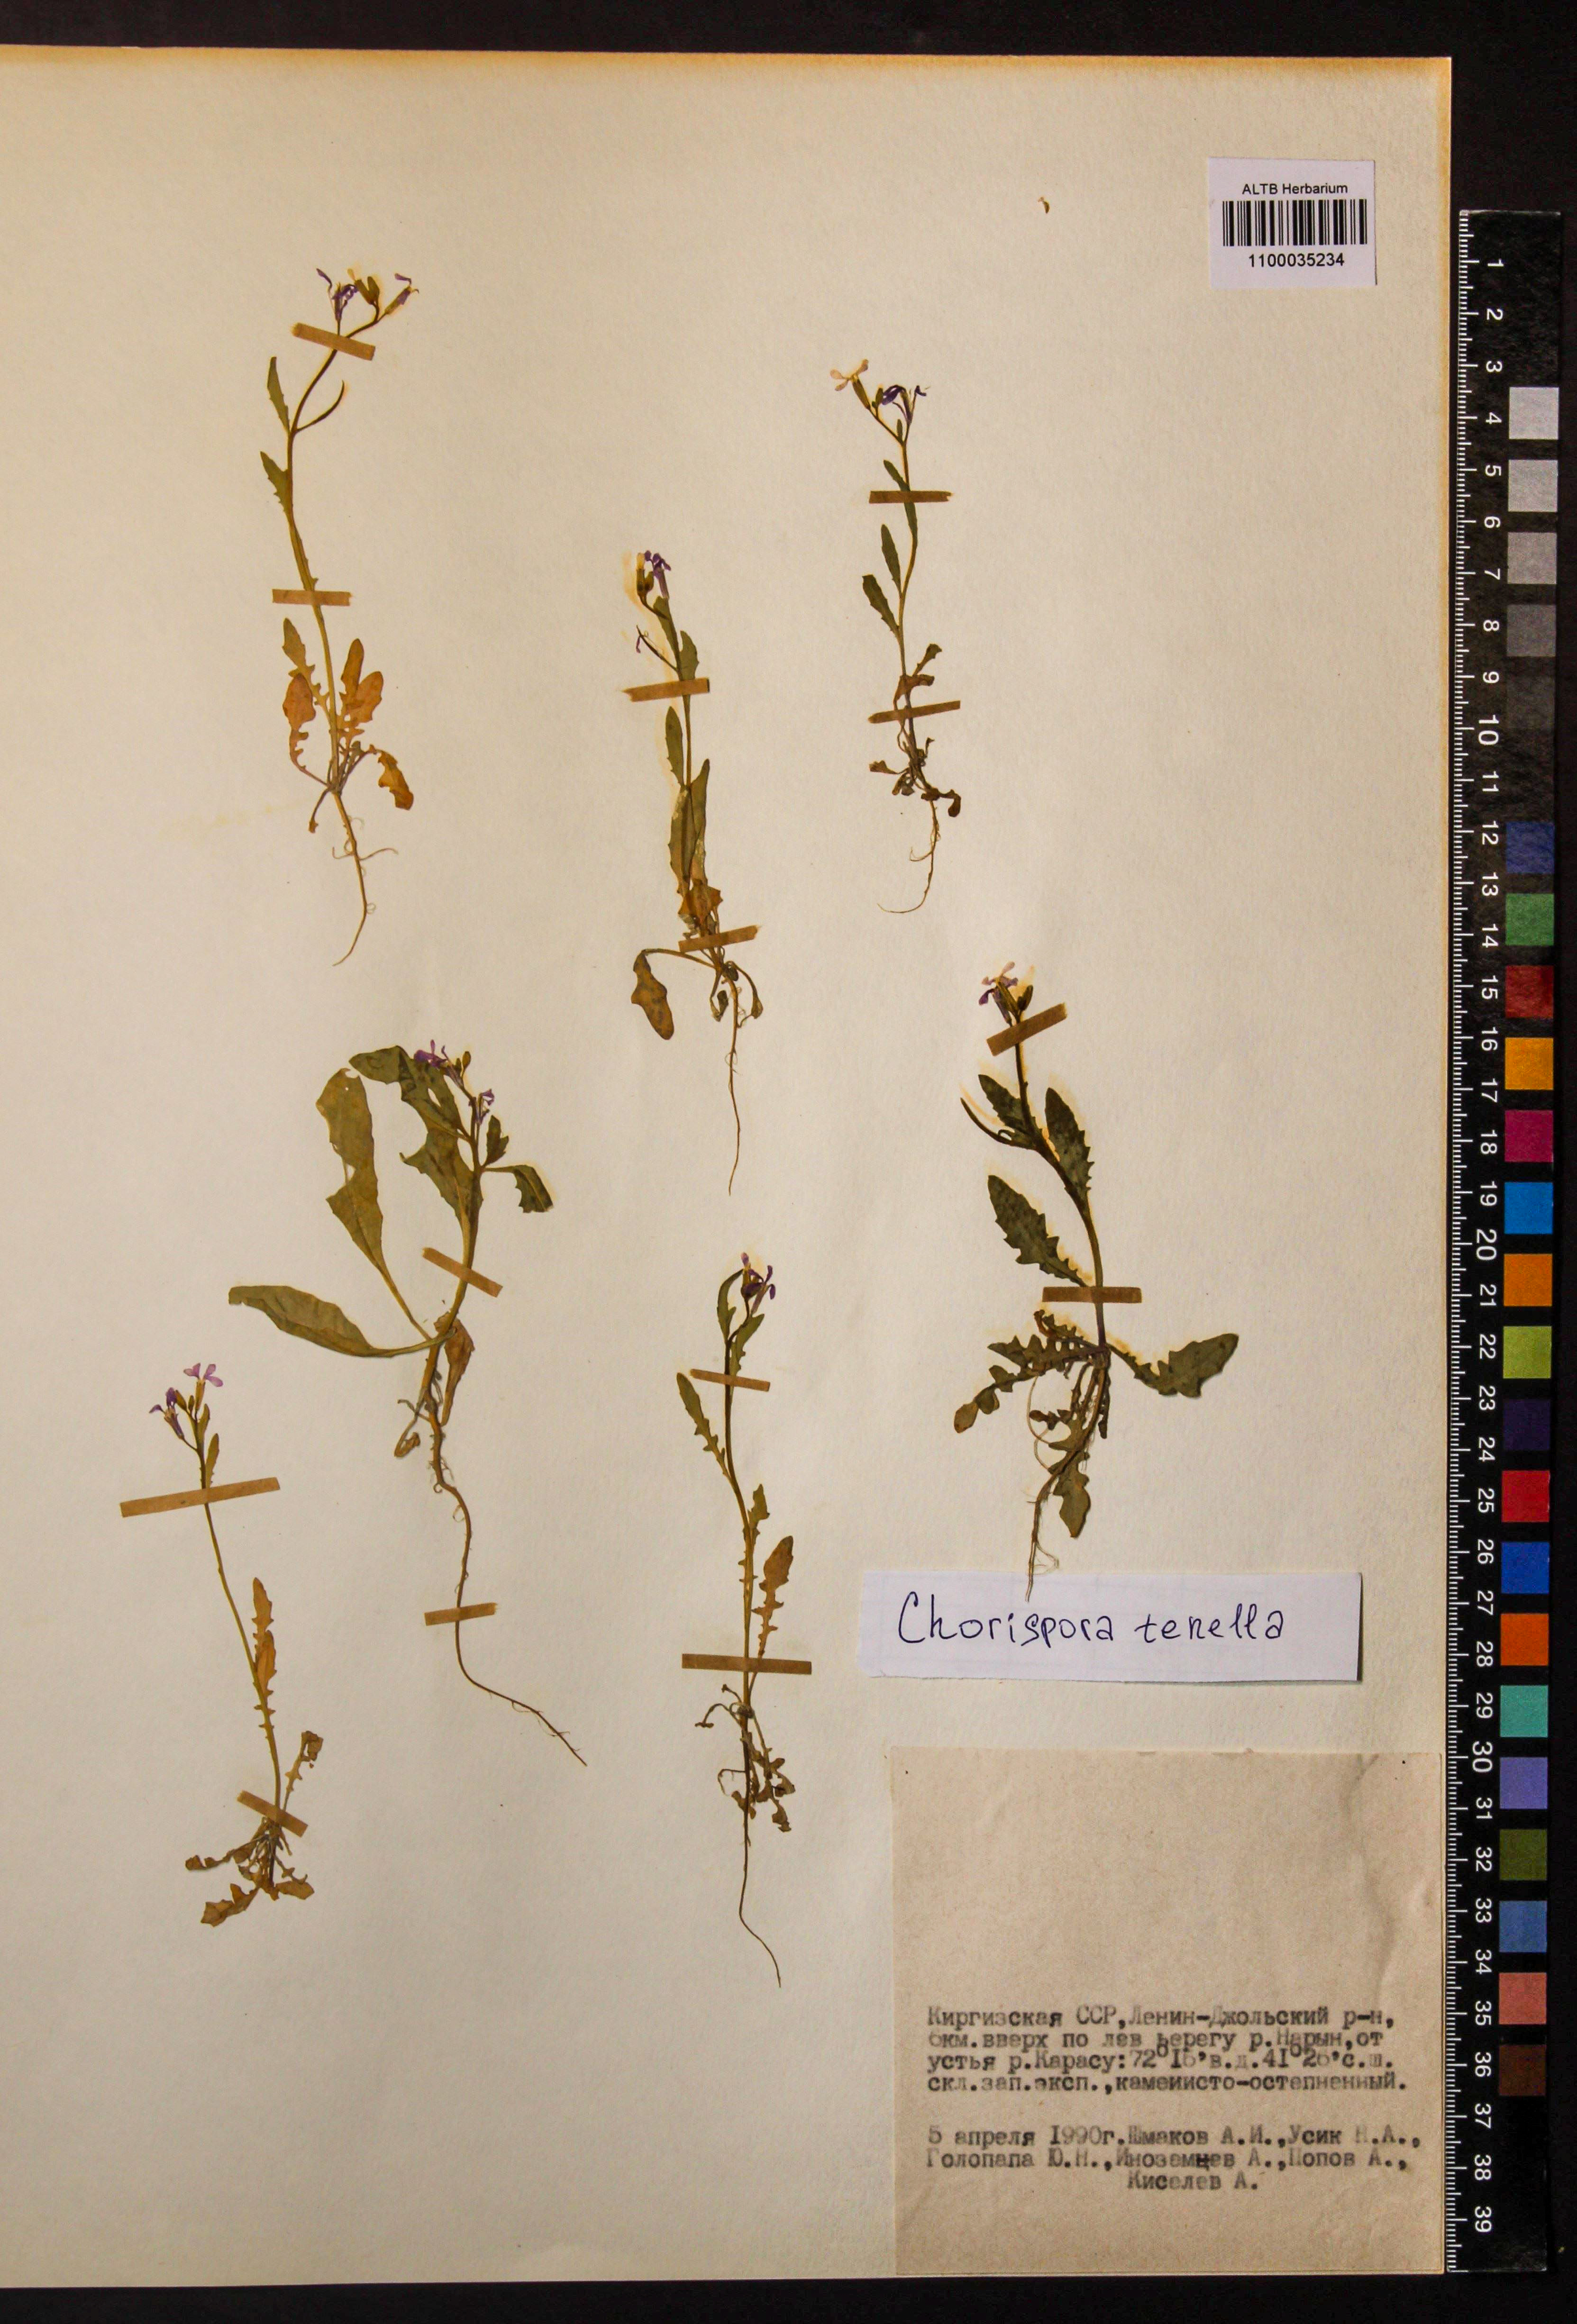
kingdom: Plantae
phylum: Tracheophyta
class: Magnoliopsida
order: Brassicales
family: Brassicaceae
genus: Chorispora
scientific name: Chorispora tenella
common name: Crossflower
